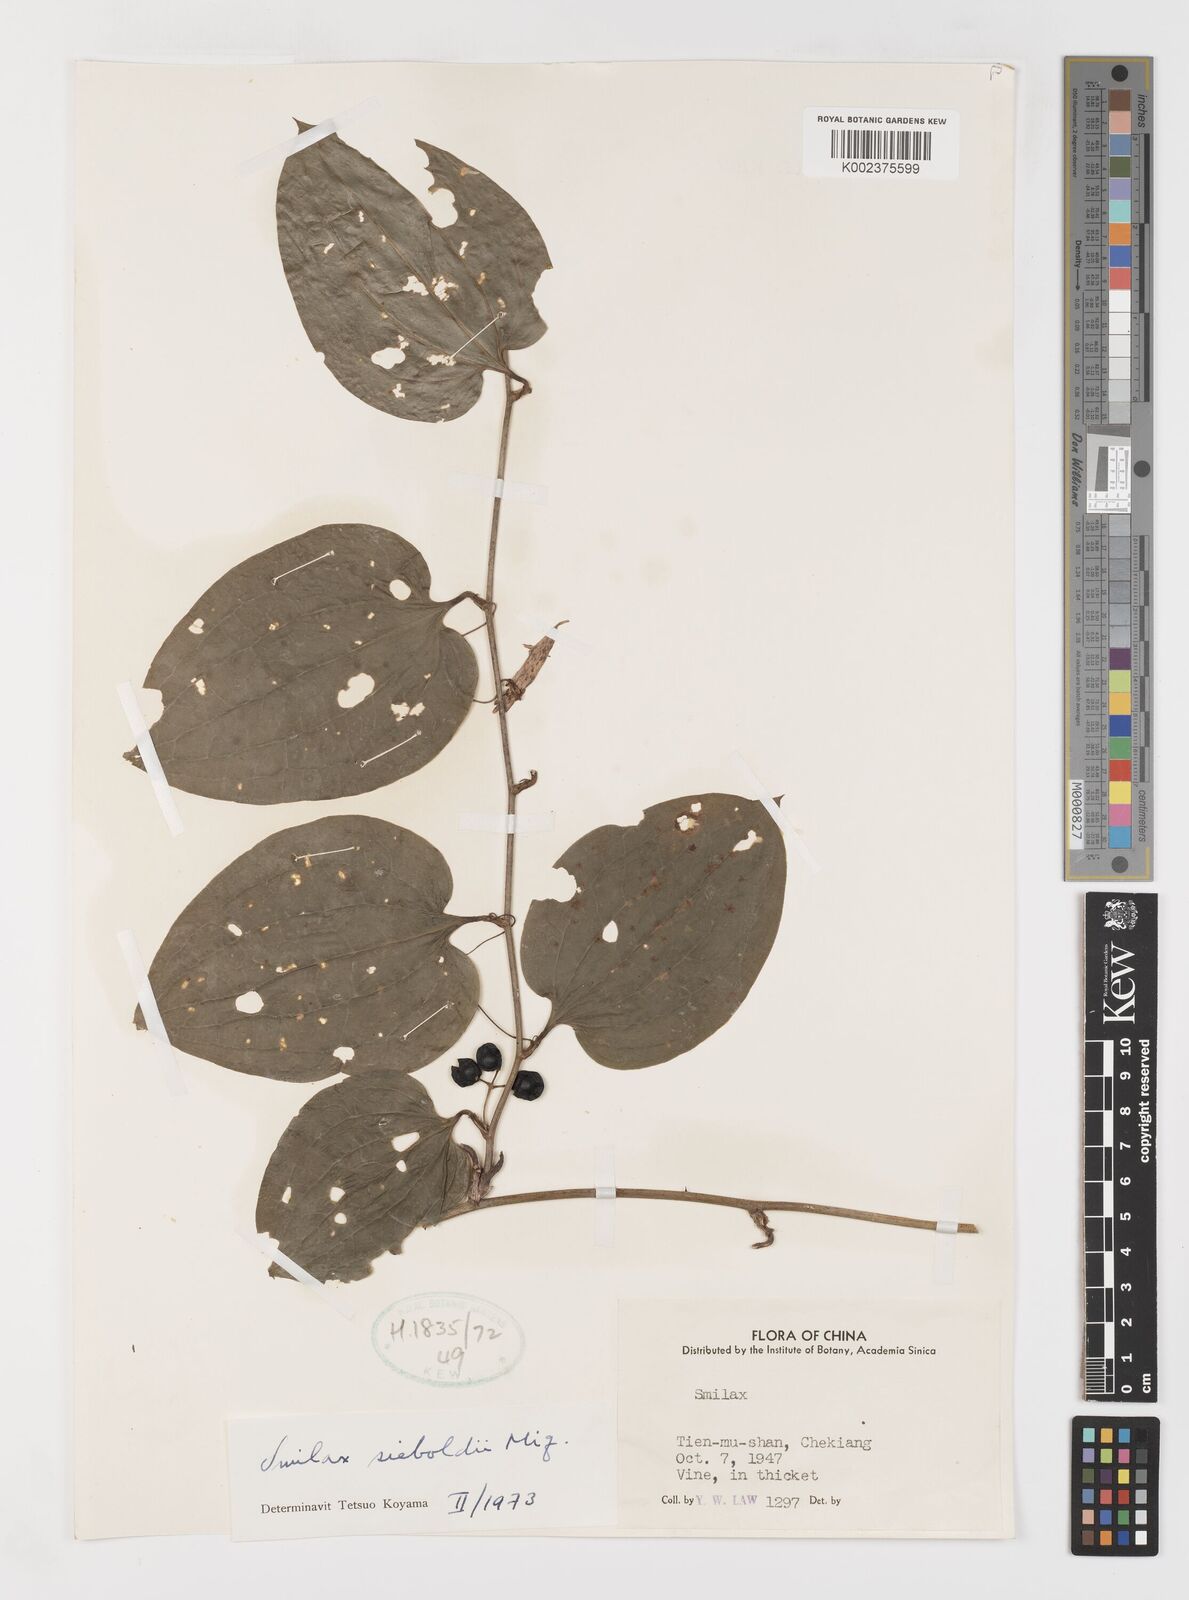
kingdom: Plantae
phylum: Tracheophyta
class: Liliopsida
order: Liliales
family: Smilacaceae
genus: Smilax
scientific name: Smilax sieboldii
